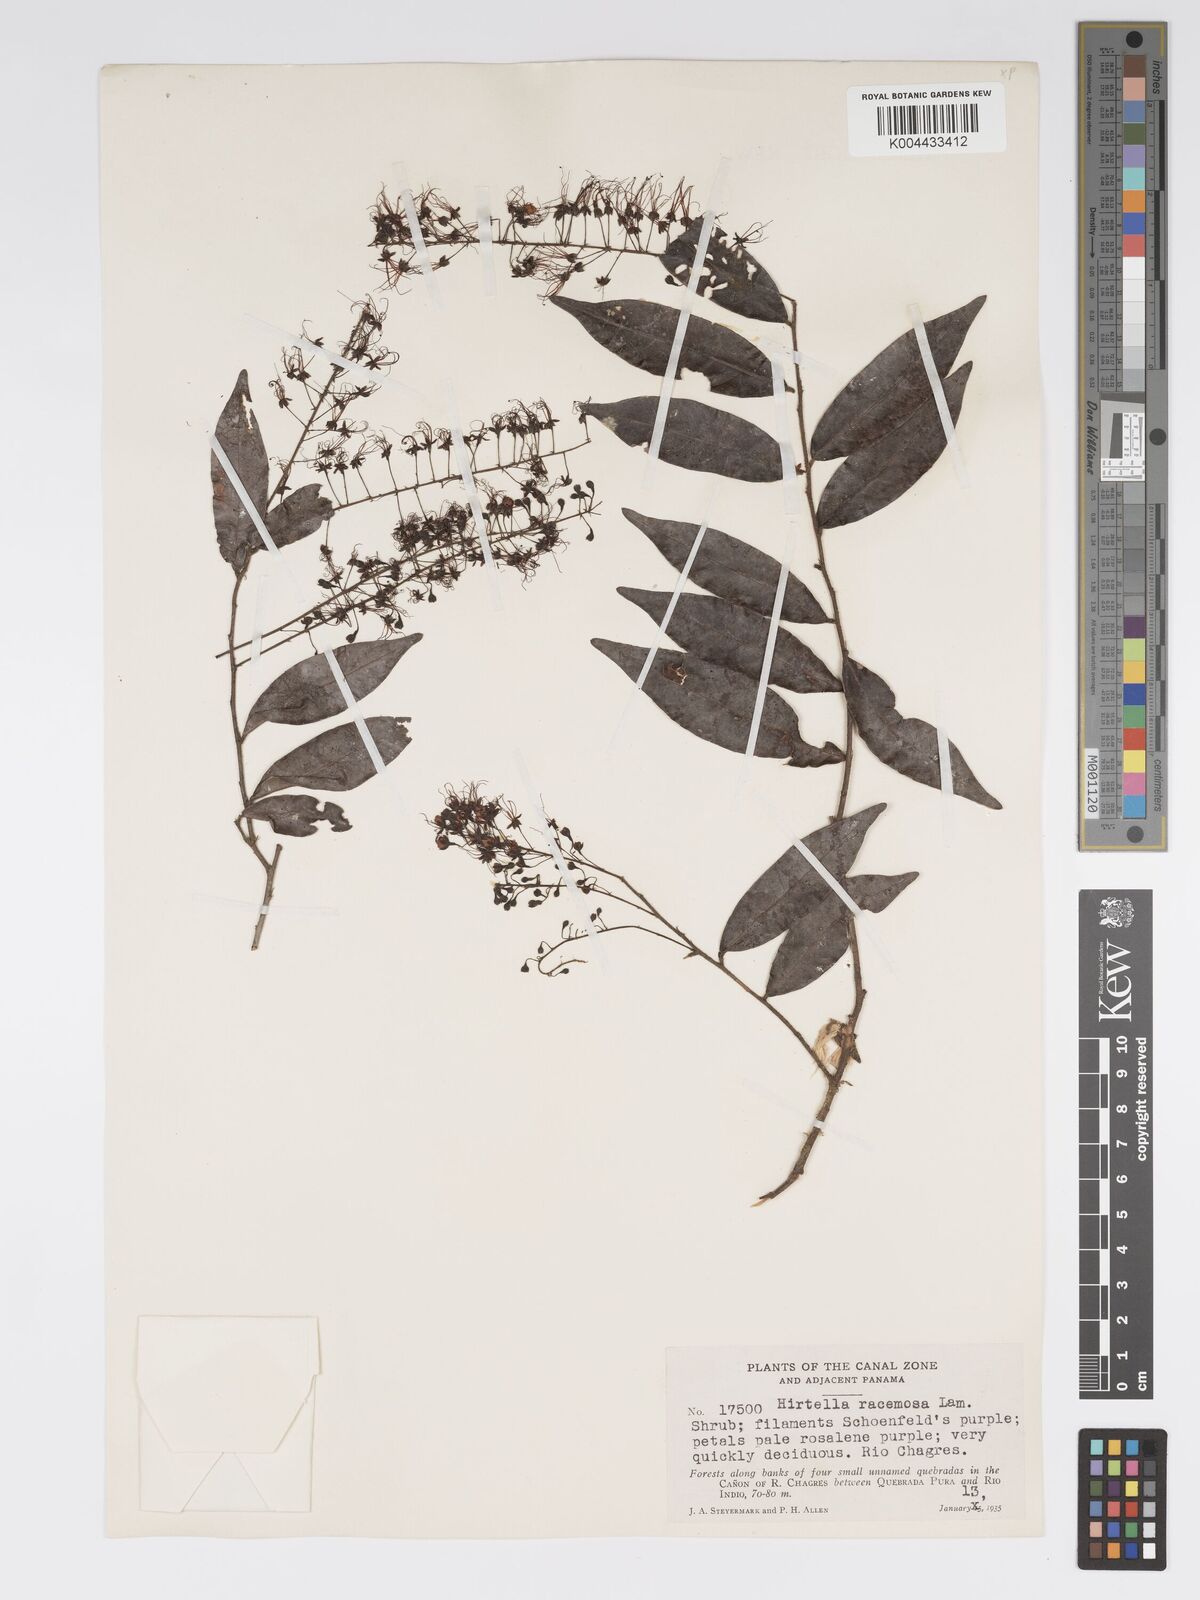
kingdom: Plantae
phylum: Tracheophyta
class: Magnoliopsida
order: Malpighiales
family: Chrysobalanaceae
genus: Hirtella
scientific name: Hirtella racemosa
